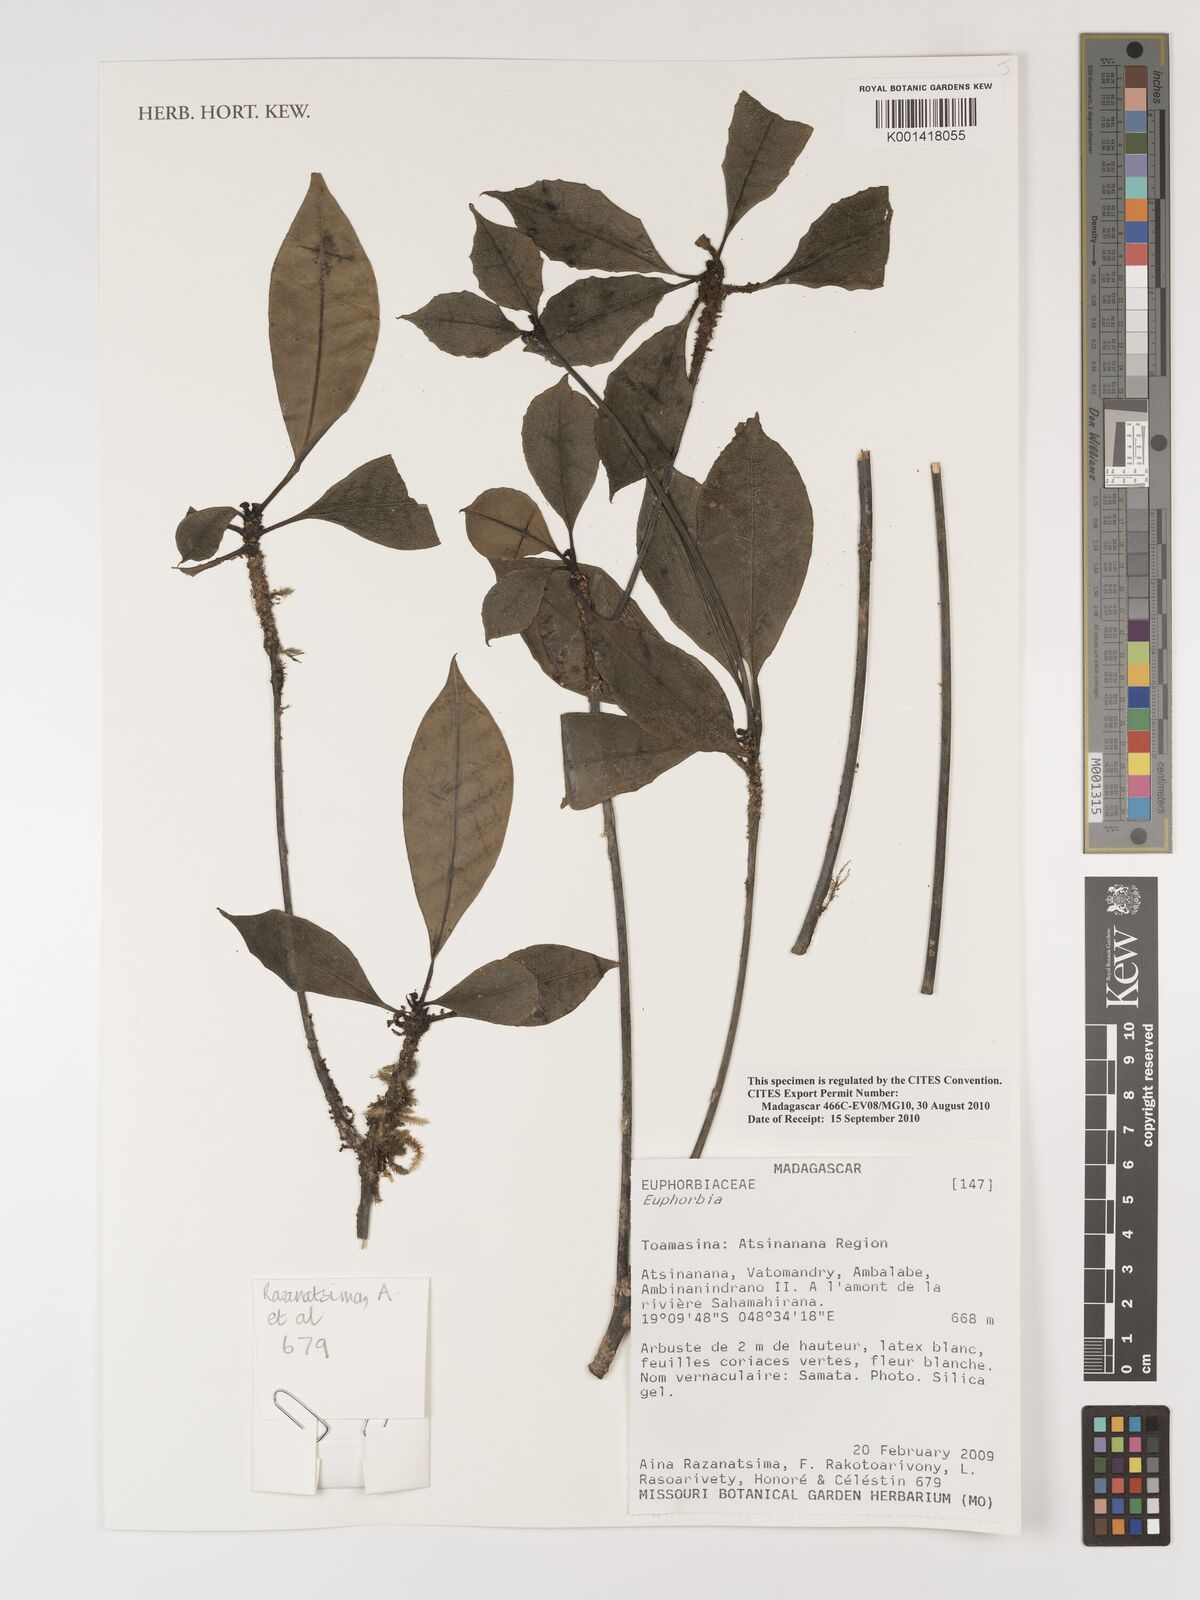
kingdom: Plantae
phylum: Tracheophyta
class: Magnoliopsida
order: Malpighiales
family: Euphorbiaceae
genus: Euphorbia
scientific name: Euphorbia
